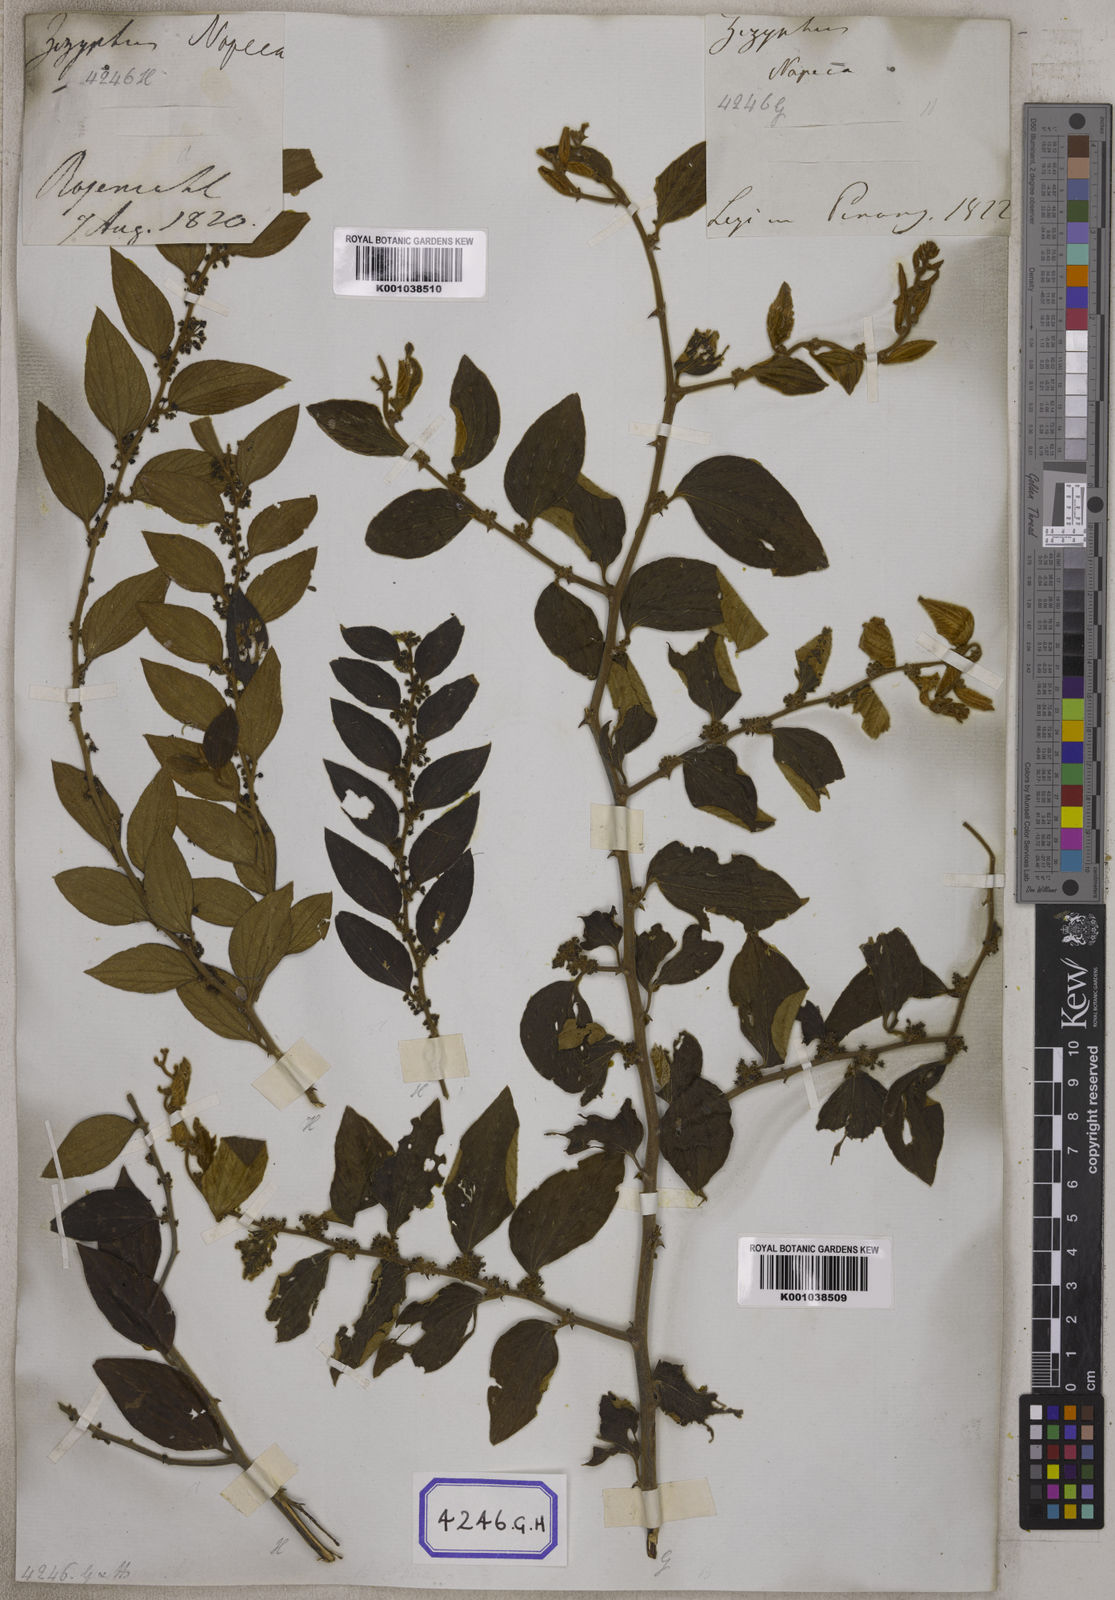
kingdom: Plantae
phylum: Tracheophyta
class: Magnoliopsida
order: Rosales
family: Rhamnaceae
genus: Ziziphus
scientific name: Ziziphus
